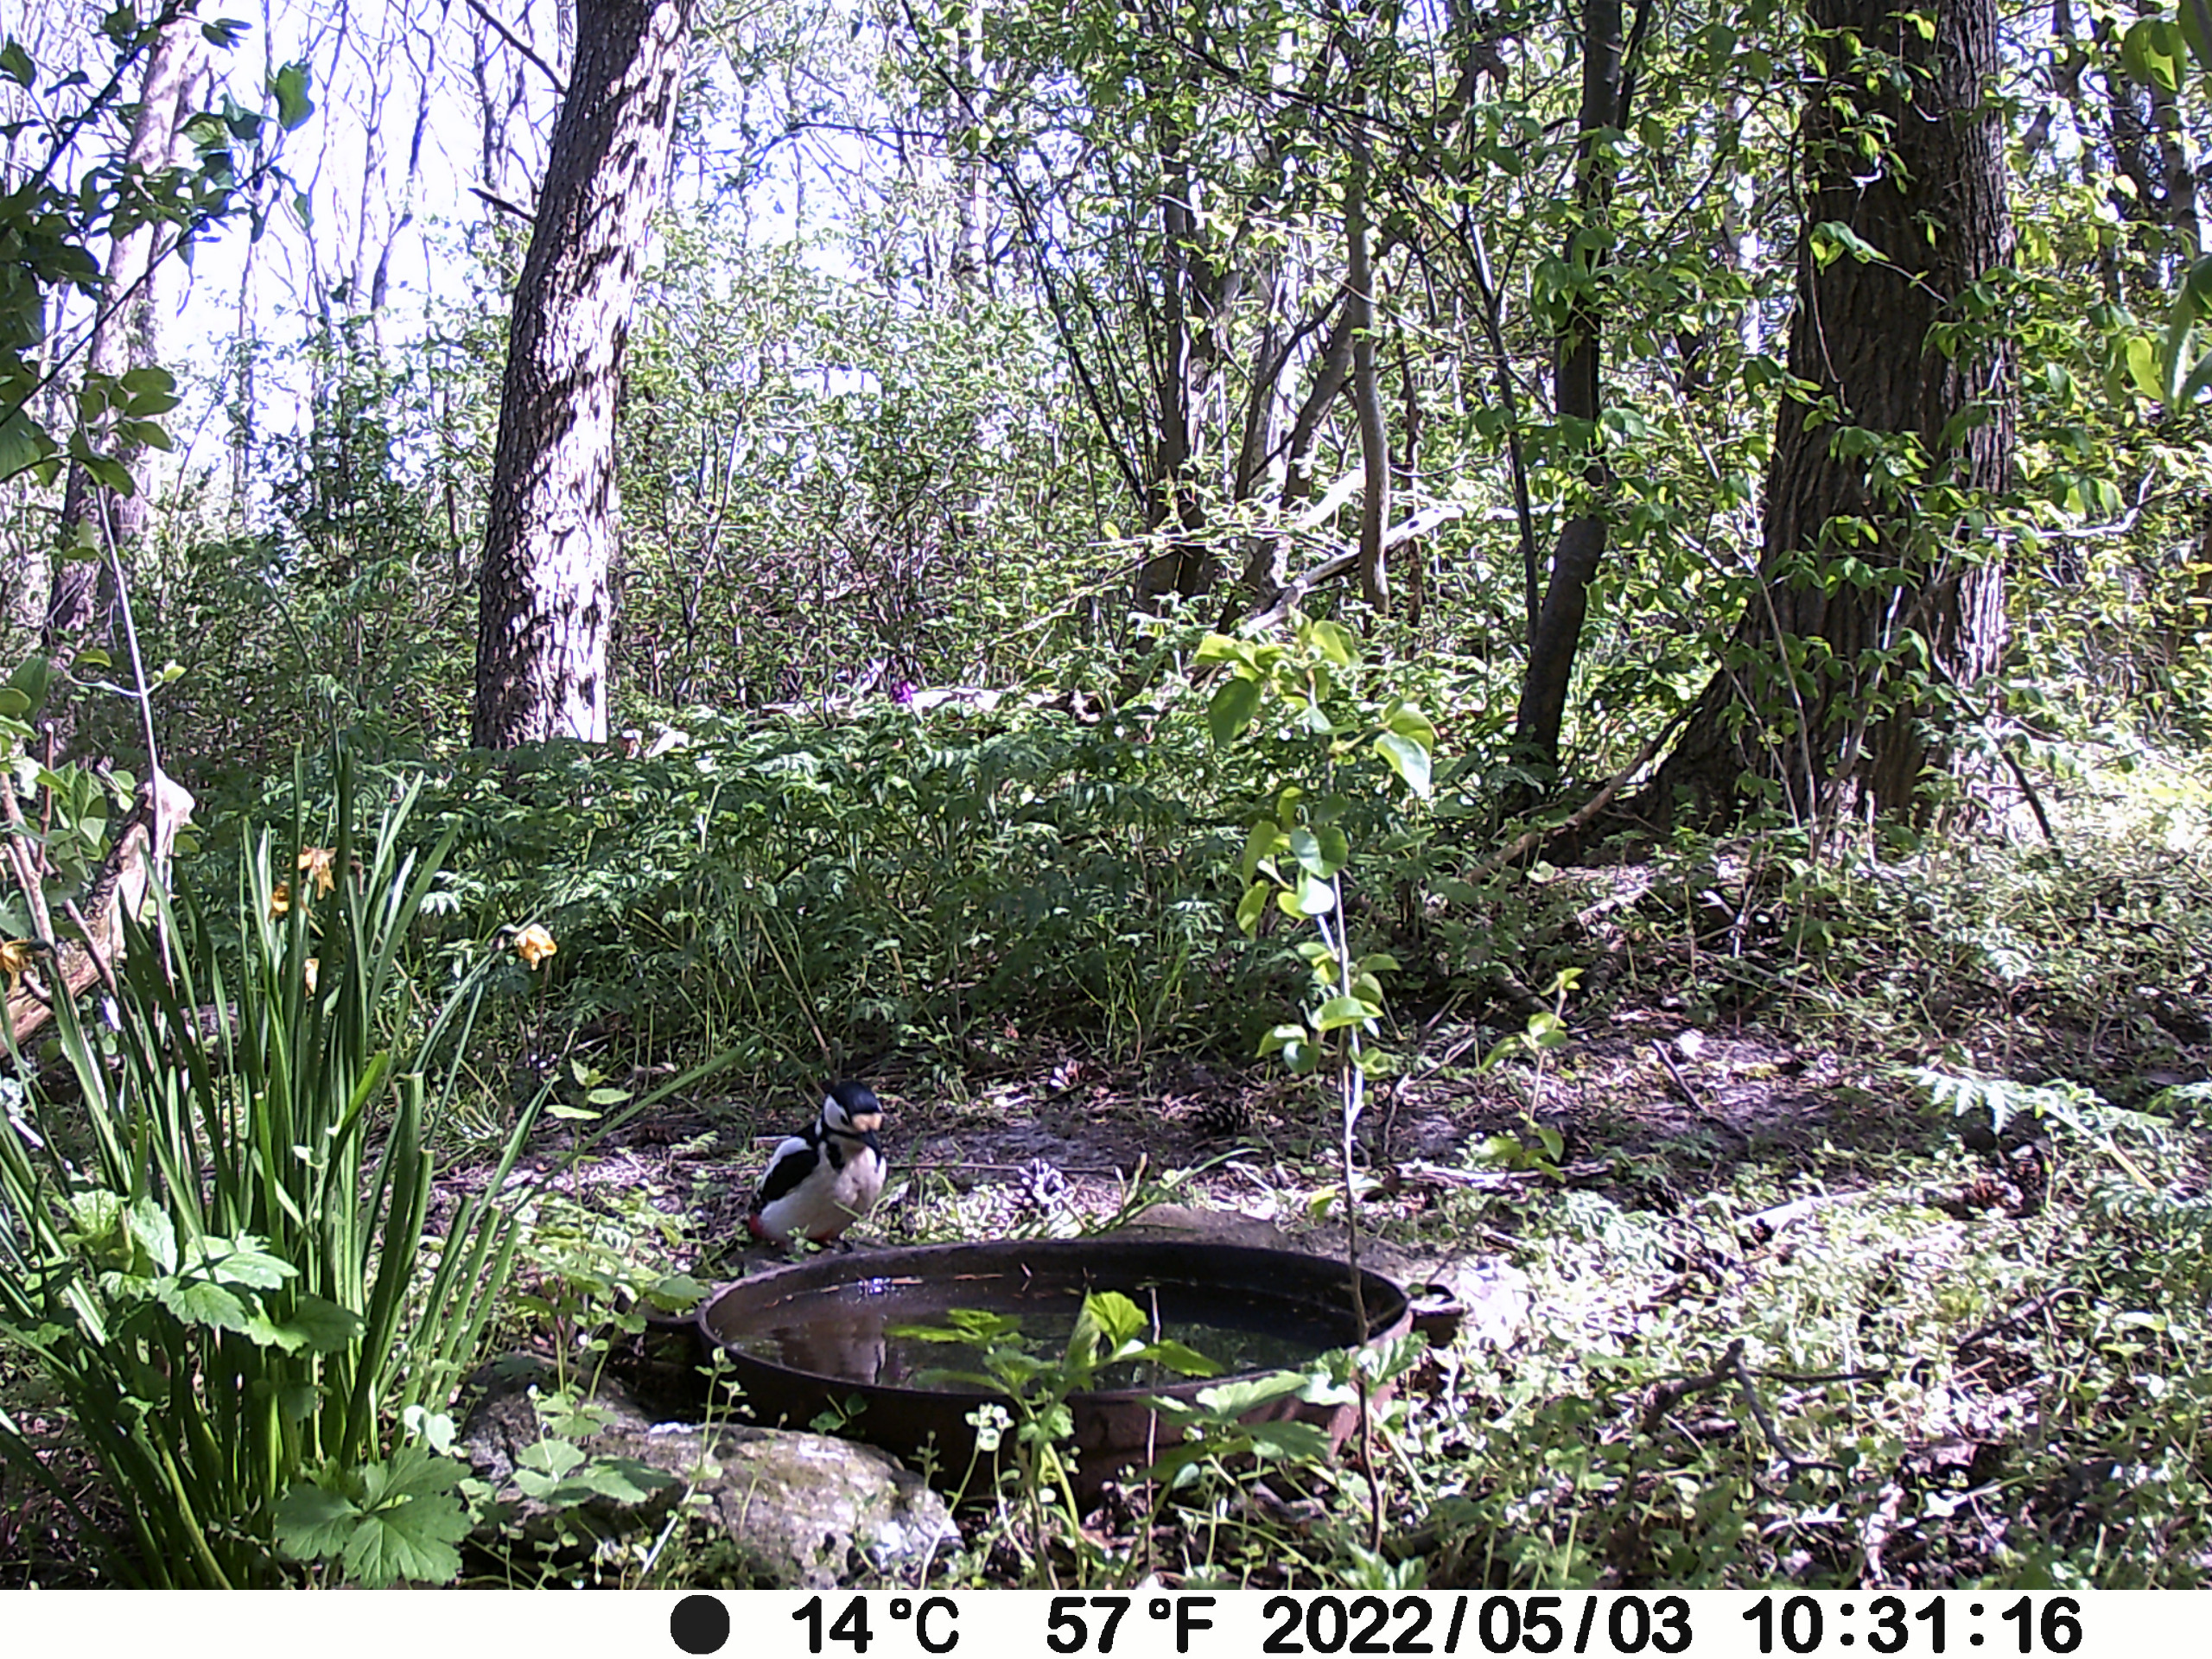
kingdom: Animalia
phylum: Chordata
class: Aves
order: Piciformes
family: Picidae
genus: Dendrocopos
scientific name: Dendrocopos major
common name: Stor flagspætte
